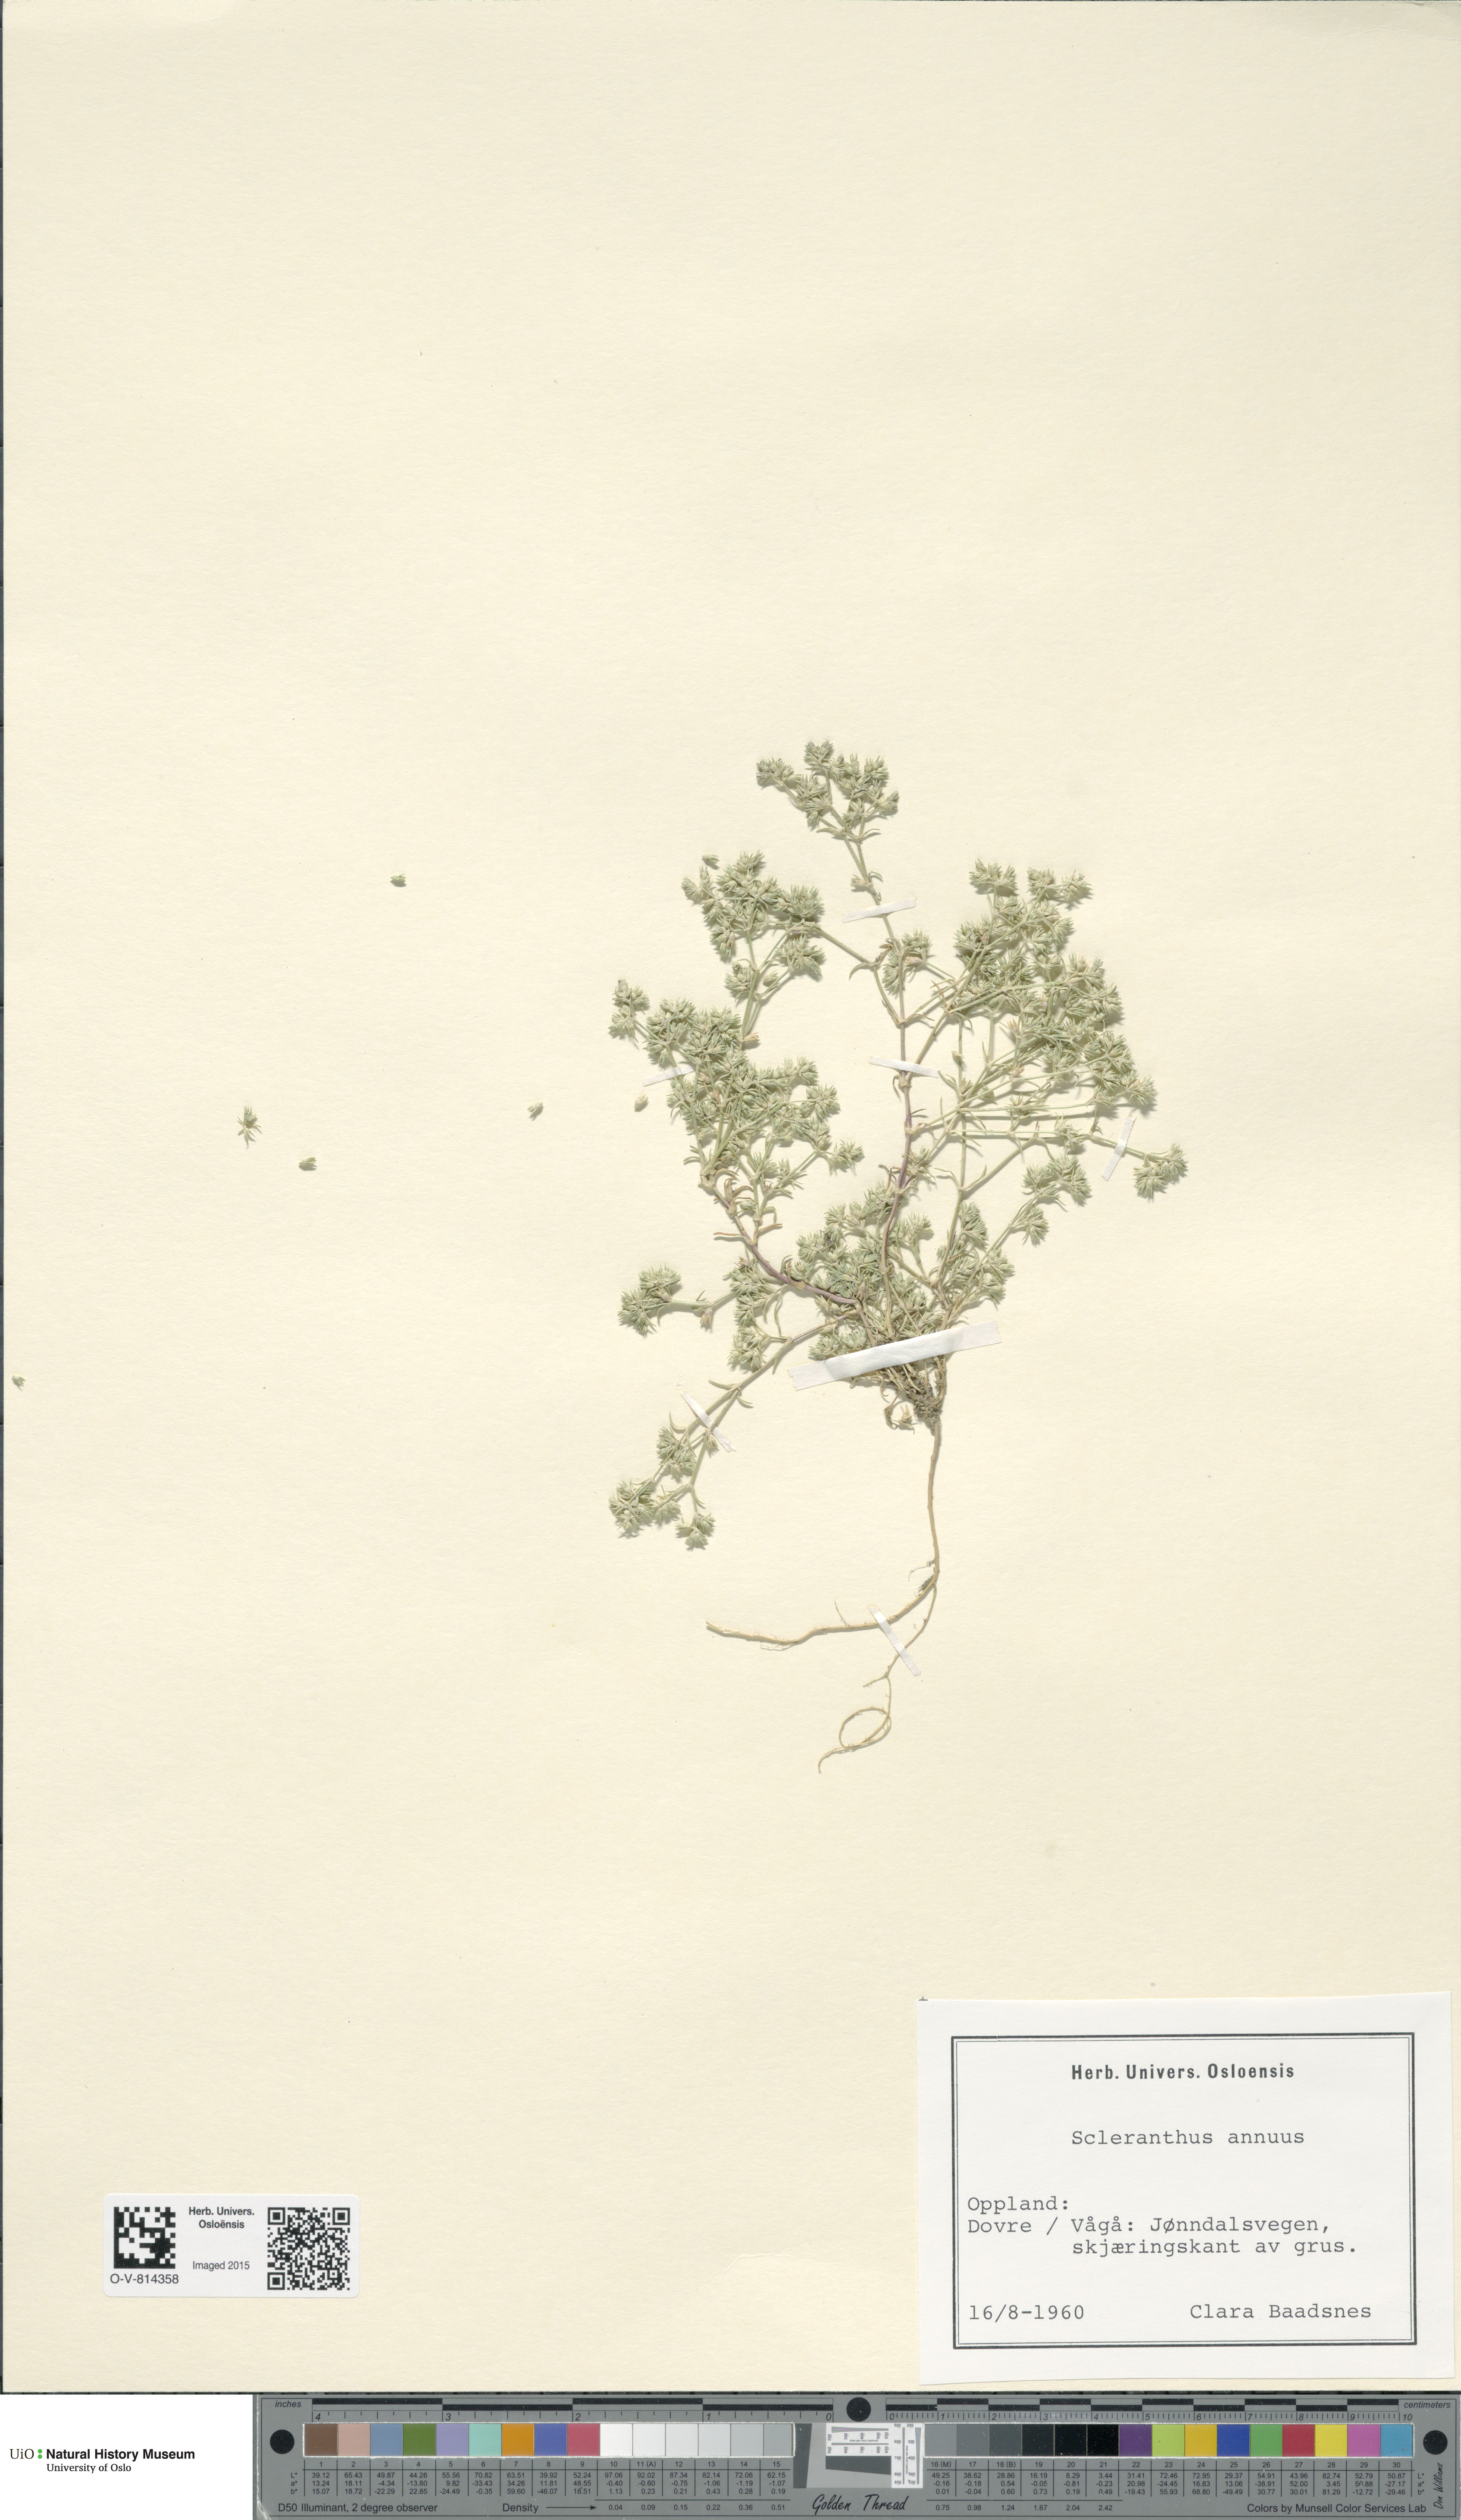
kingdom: Plantae
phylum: Tracheophyta
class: Magnoliopsida
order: Caryophyllales
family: Caryophyllaceae
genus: Scleranthus
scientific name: Scleranthus annuus
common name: Annual knawel
